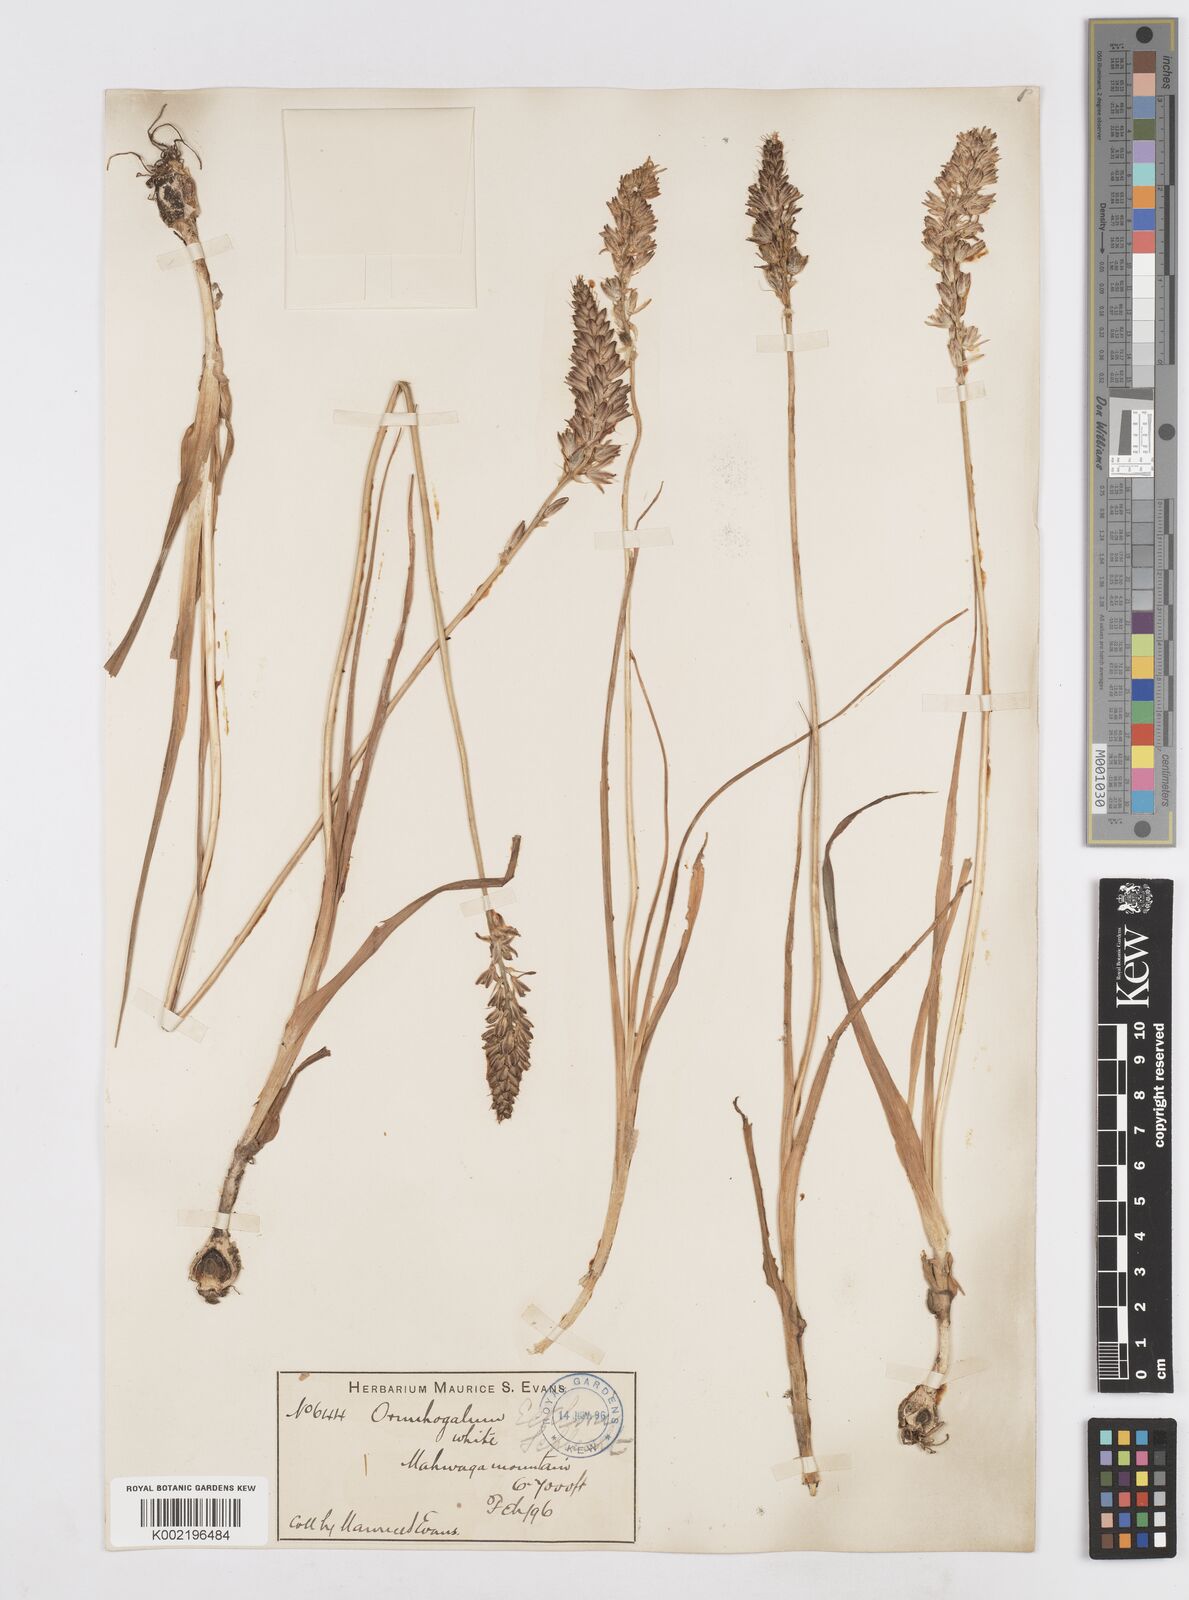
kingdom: Plantae
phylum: Tracheophyta
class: Liliopsida
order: Asparagales
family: Asparagaceae
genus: Albuca
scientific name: Albuca virens
